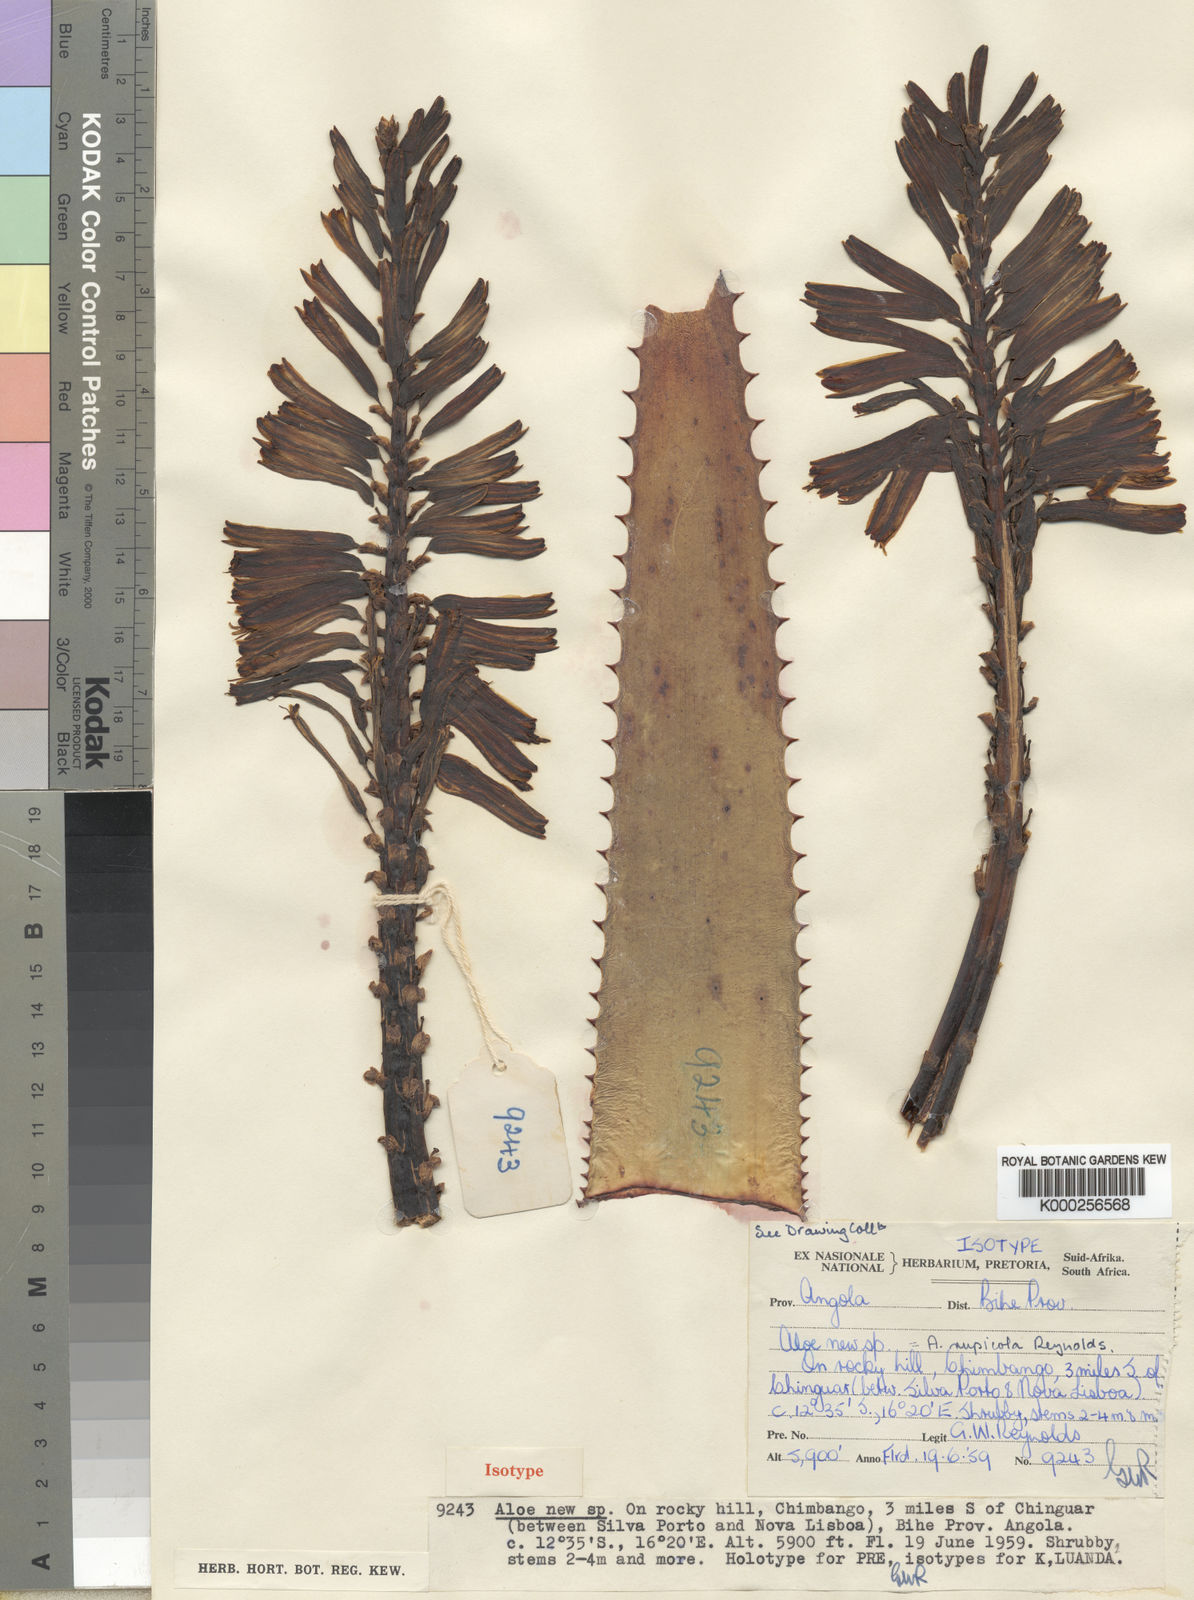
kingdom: Plantae
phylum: Tracheophyta
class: Liliopsida
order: Asparagales
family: Asphodelaceae
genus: Aloe
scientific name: Aloe rupicola
